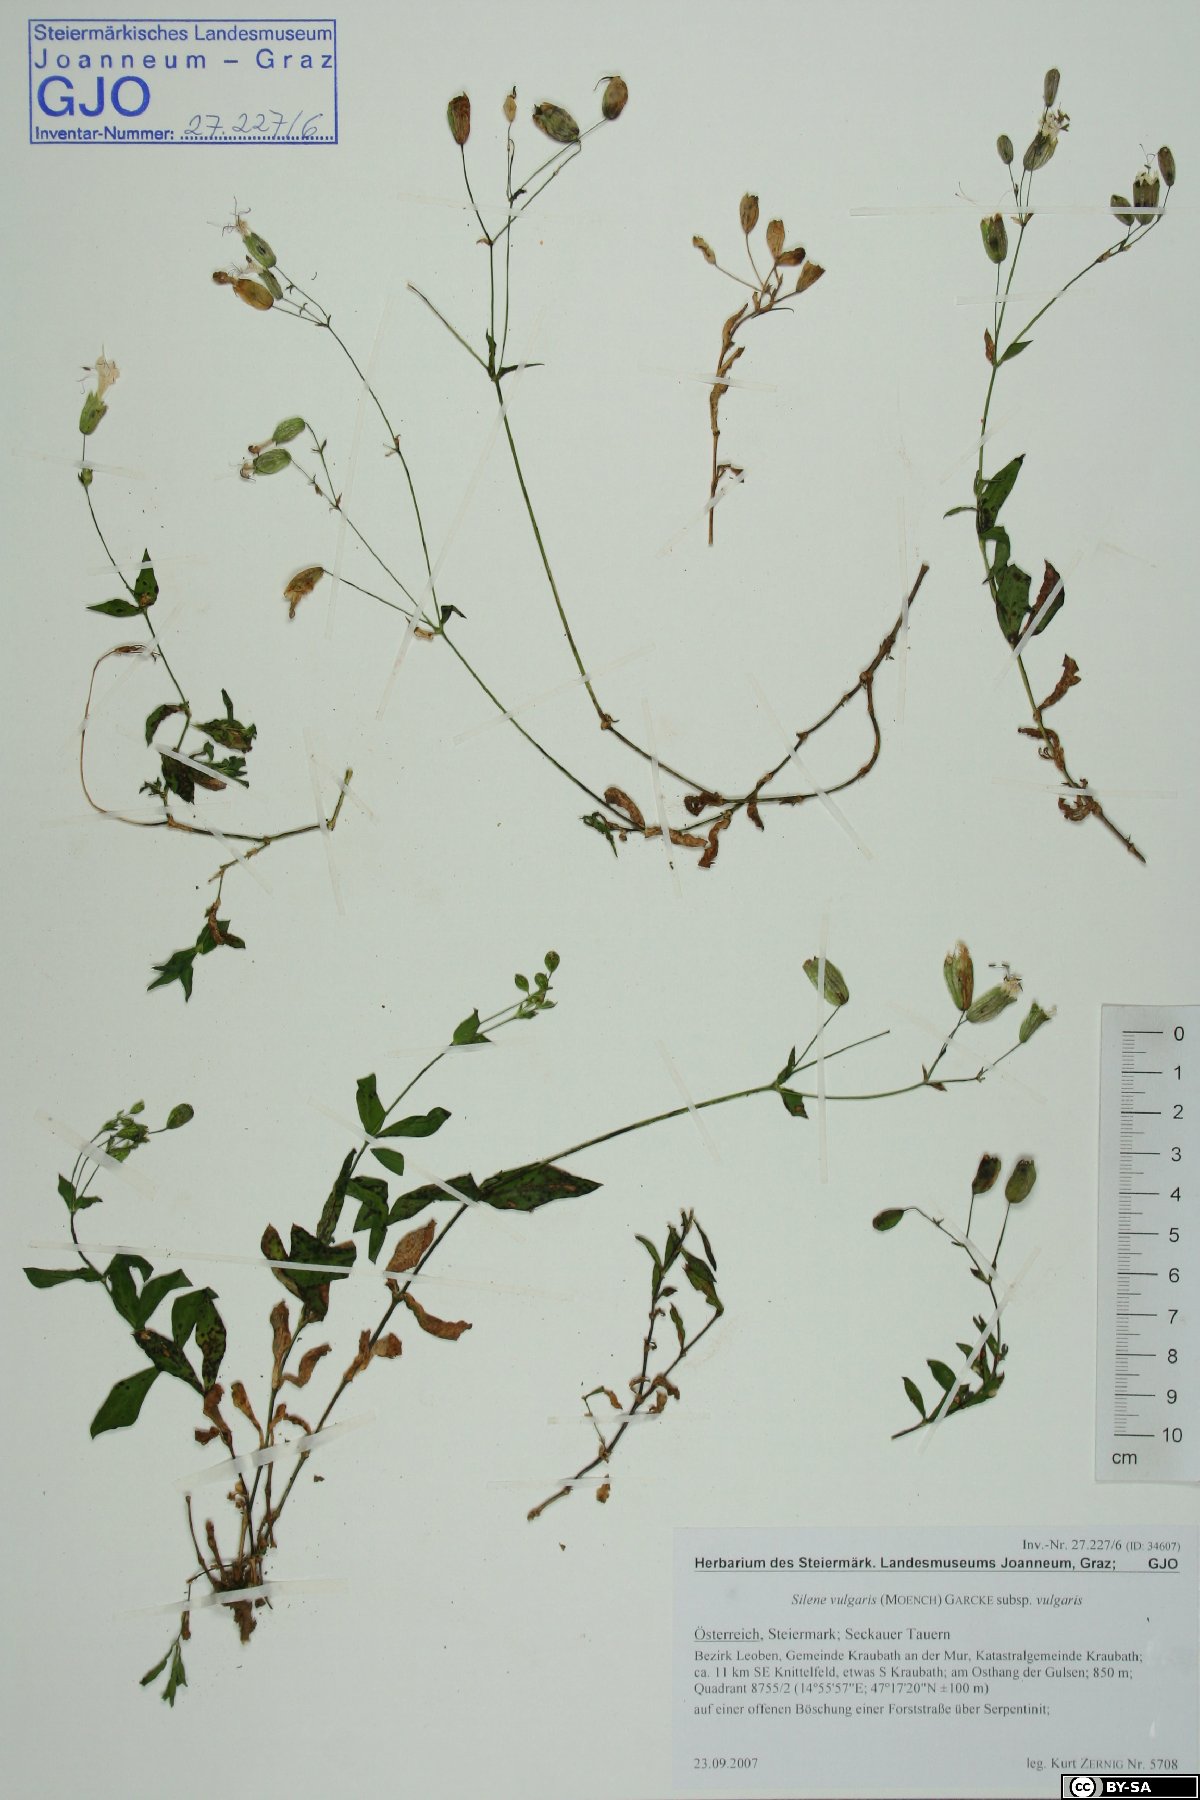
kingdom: Plantae
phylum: Tracheophyta
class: Magnoliopsida
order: Caryophyllales
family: Caryophyllaceae
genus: Silene
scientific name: Silene vulgaris
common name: Bladder campion
